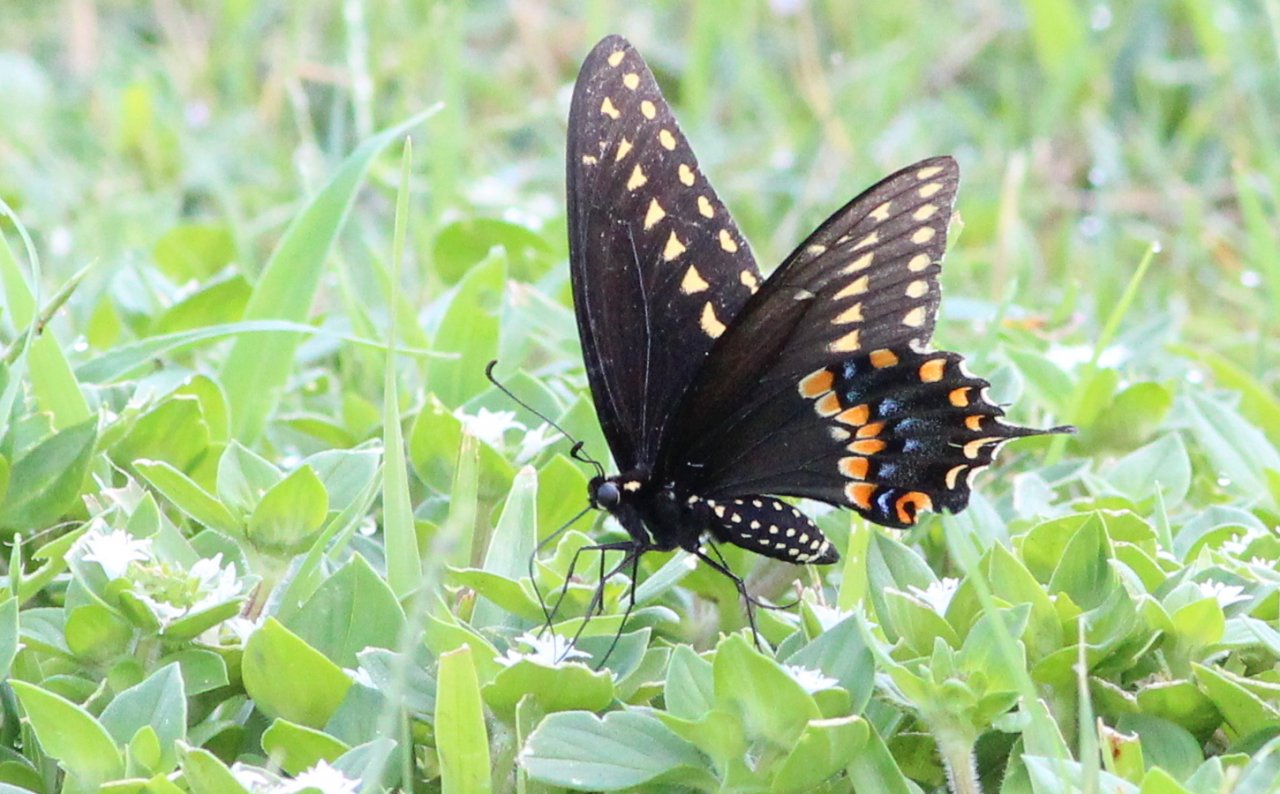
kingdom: Animalia
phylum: Arthropoda
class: Insecta
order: Lepidoptera
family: Papilionidae
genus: Pterourus
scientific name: Pterourus troilus
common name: Spicebush Swallowtail
